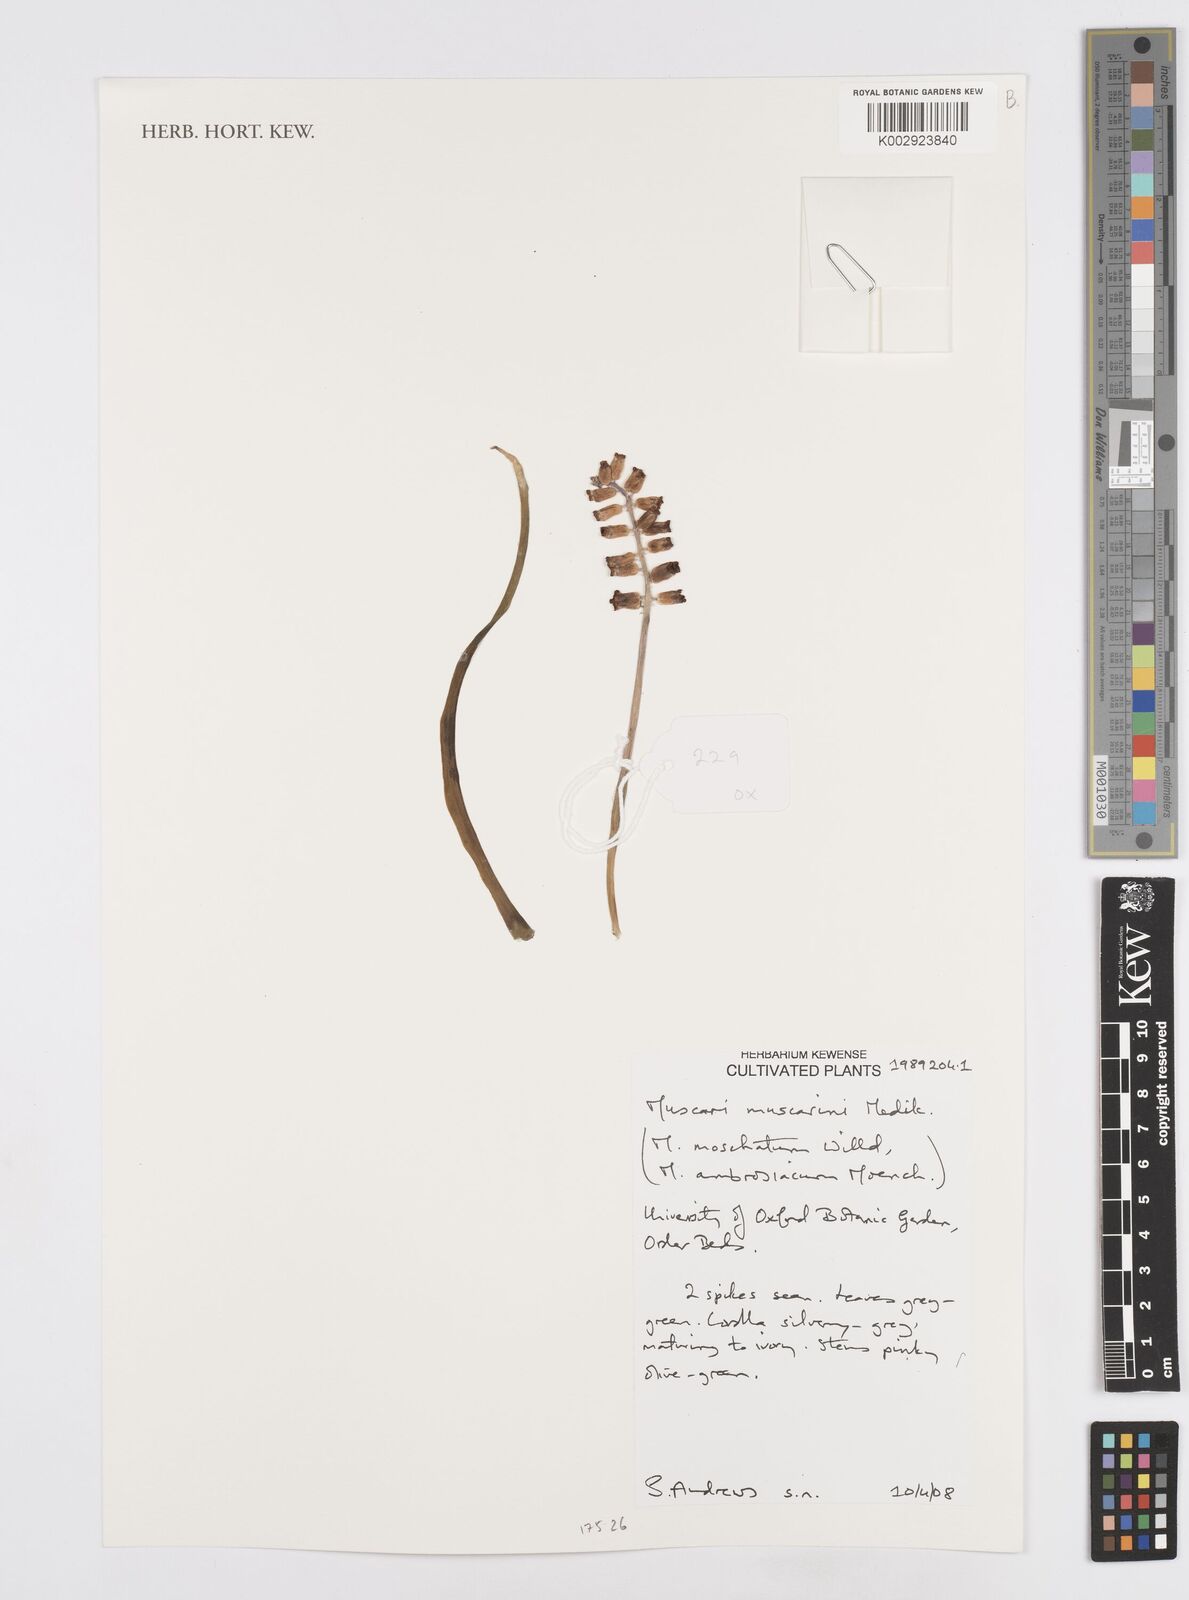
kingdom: Plantae
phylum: Tracheophyta
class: Liliopsida
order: Asparagales
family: Asparagaceae
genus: Muscarimia
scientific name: Muscarimia muscari
